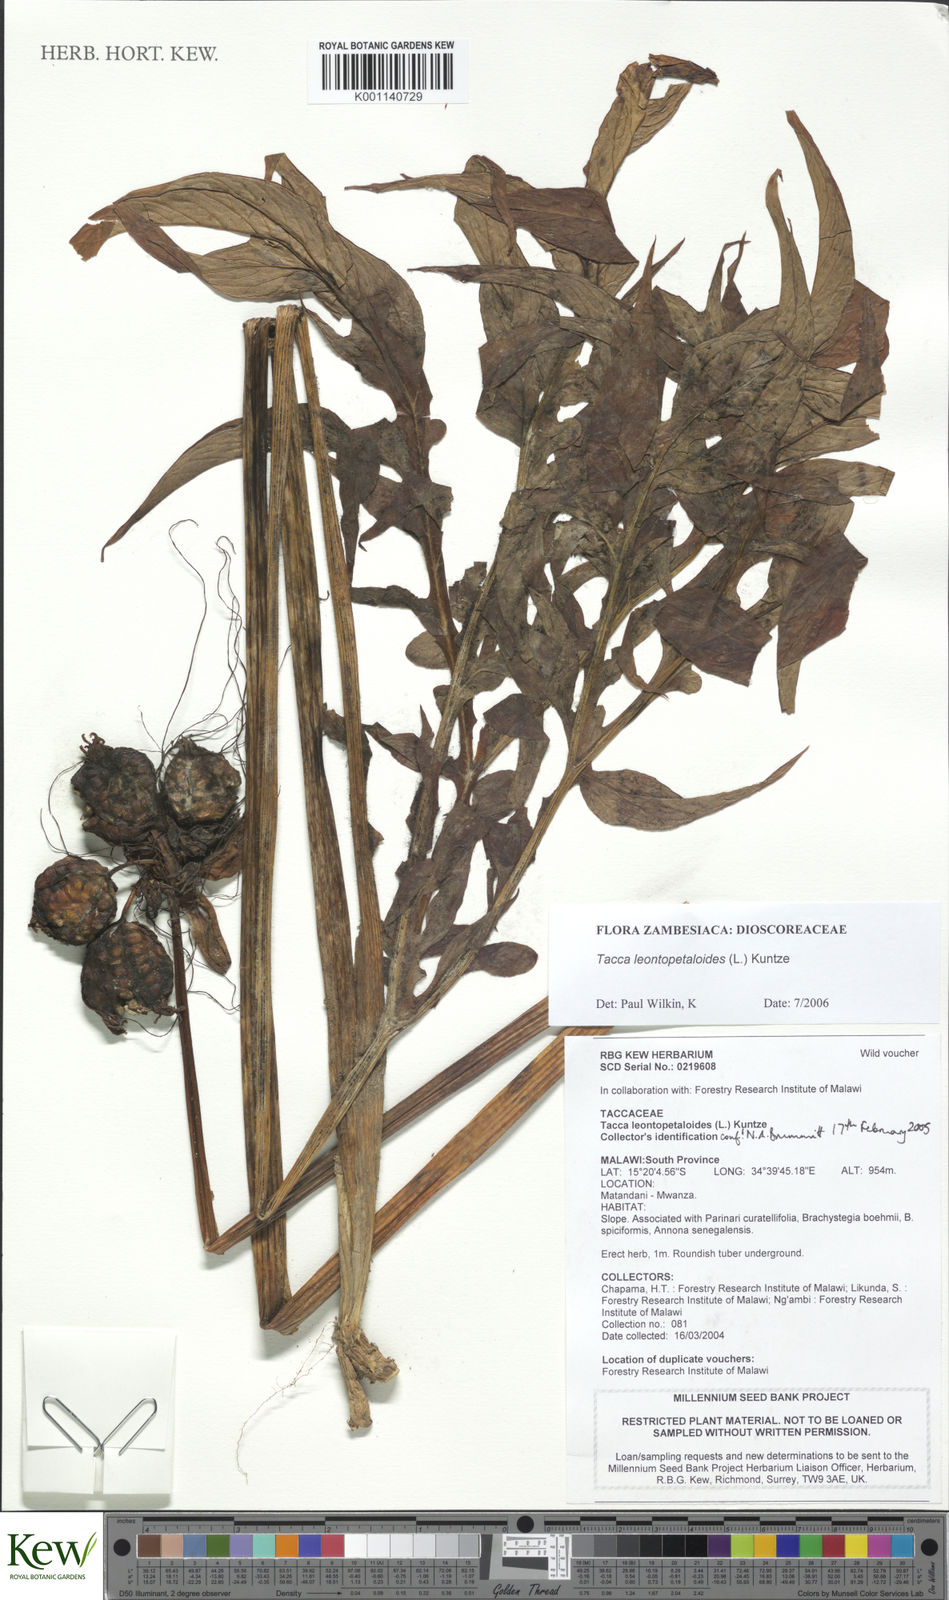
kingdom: Plantae
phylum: Tracheophyta
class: Liliopsida
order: Dioscoreales
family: Dioscoreaceae
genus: Tacca
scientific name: Tacca leontopetaloides
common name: Arrowroot
